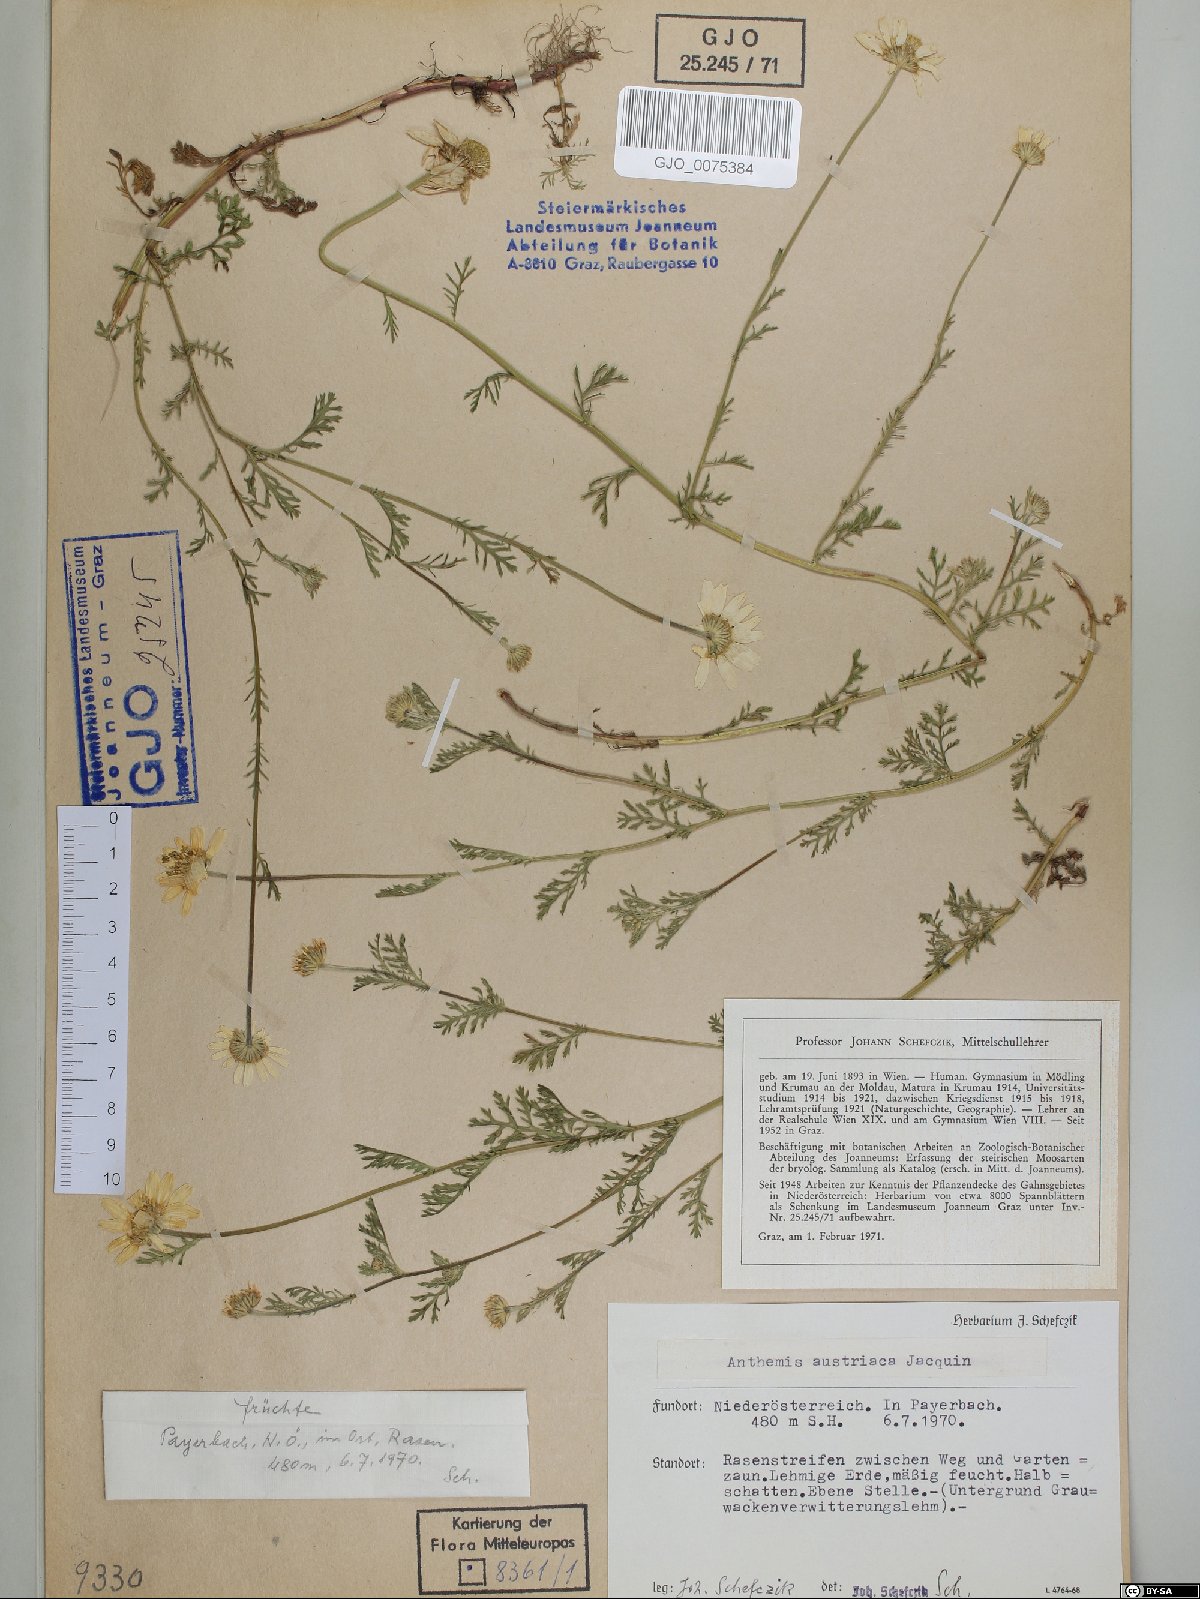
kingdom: Plantae
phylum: Tracheophyta
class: Magnoliopsida
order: Asterales
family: Asteraceae
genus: Cota
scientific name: Cota austriaca
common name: Austrian chamomile
